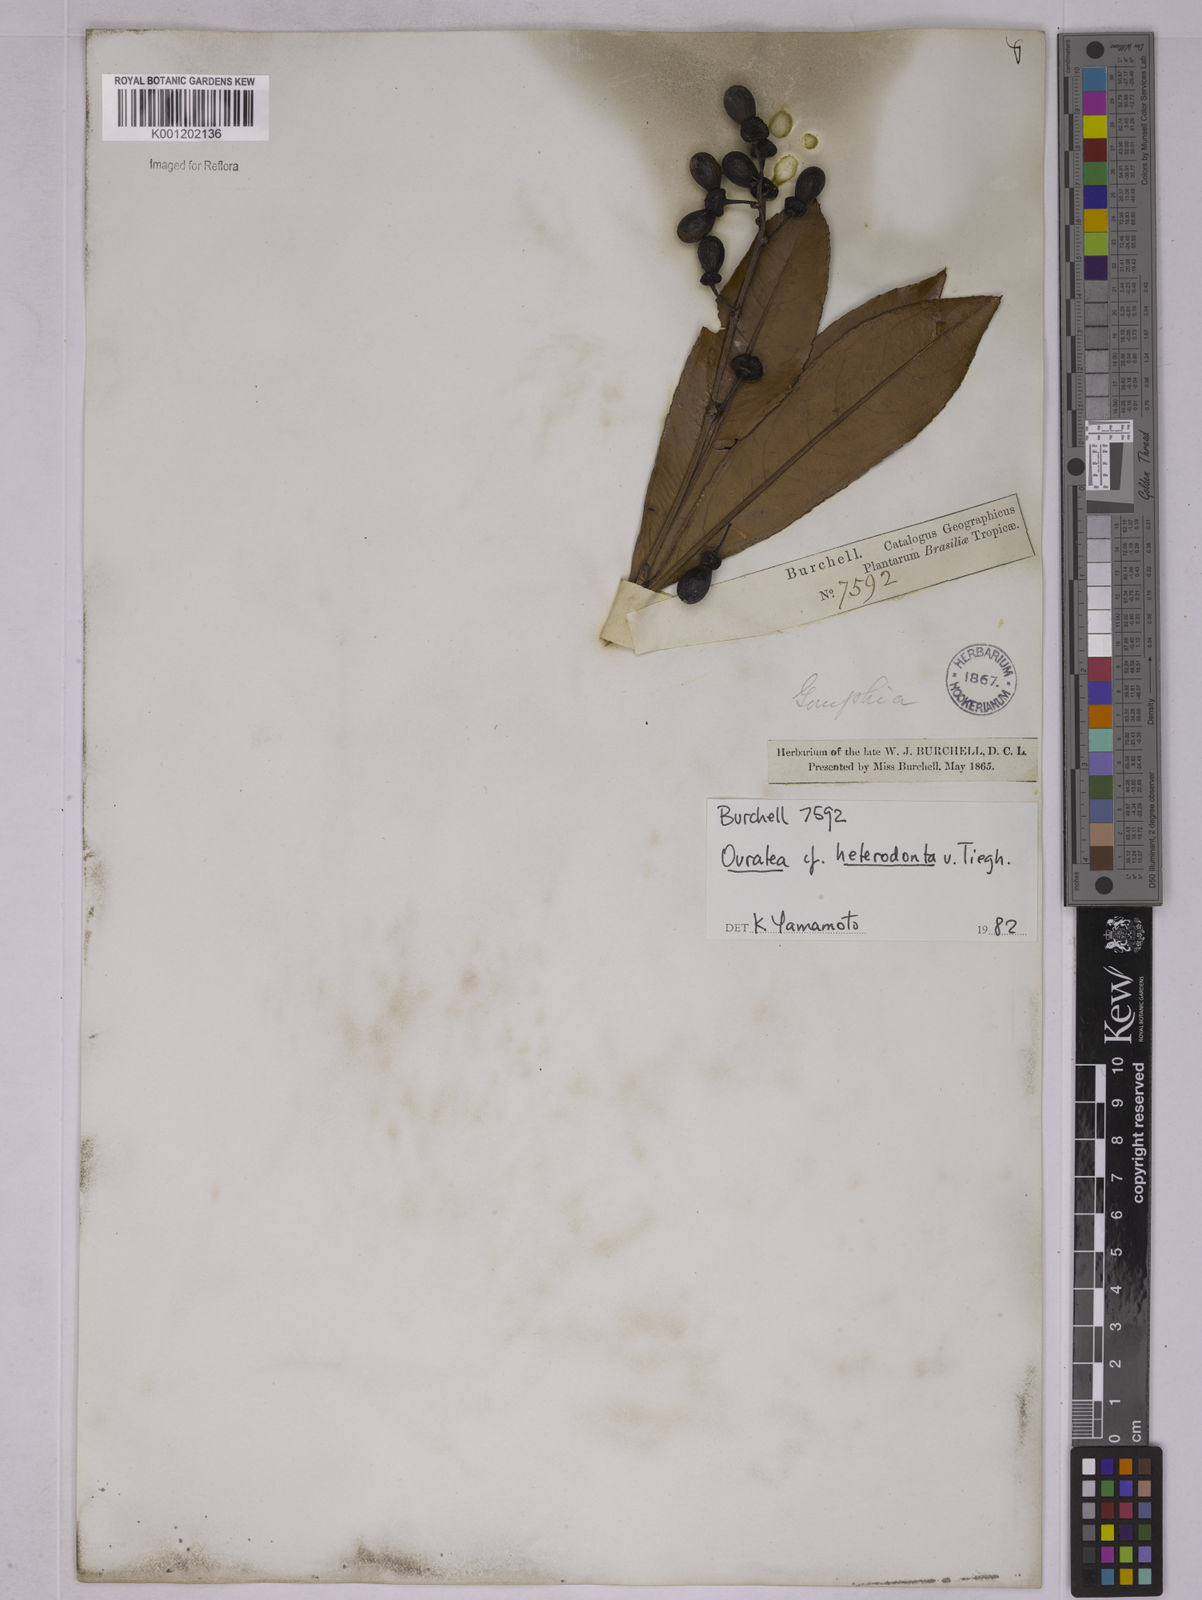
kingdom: Plantae
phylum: Tracheophyta
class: Magnoliopsida
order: Malpighiales
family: Ochnaceae
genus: Ouratea
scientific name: Ouratea crassifolia
